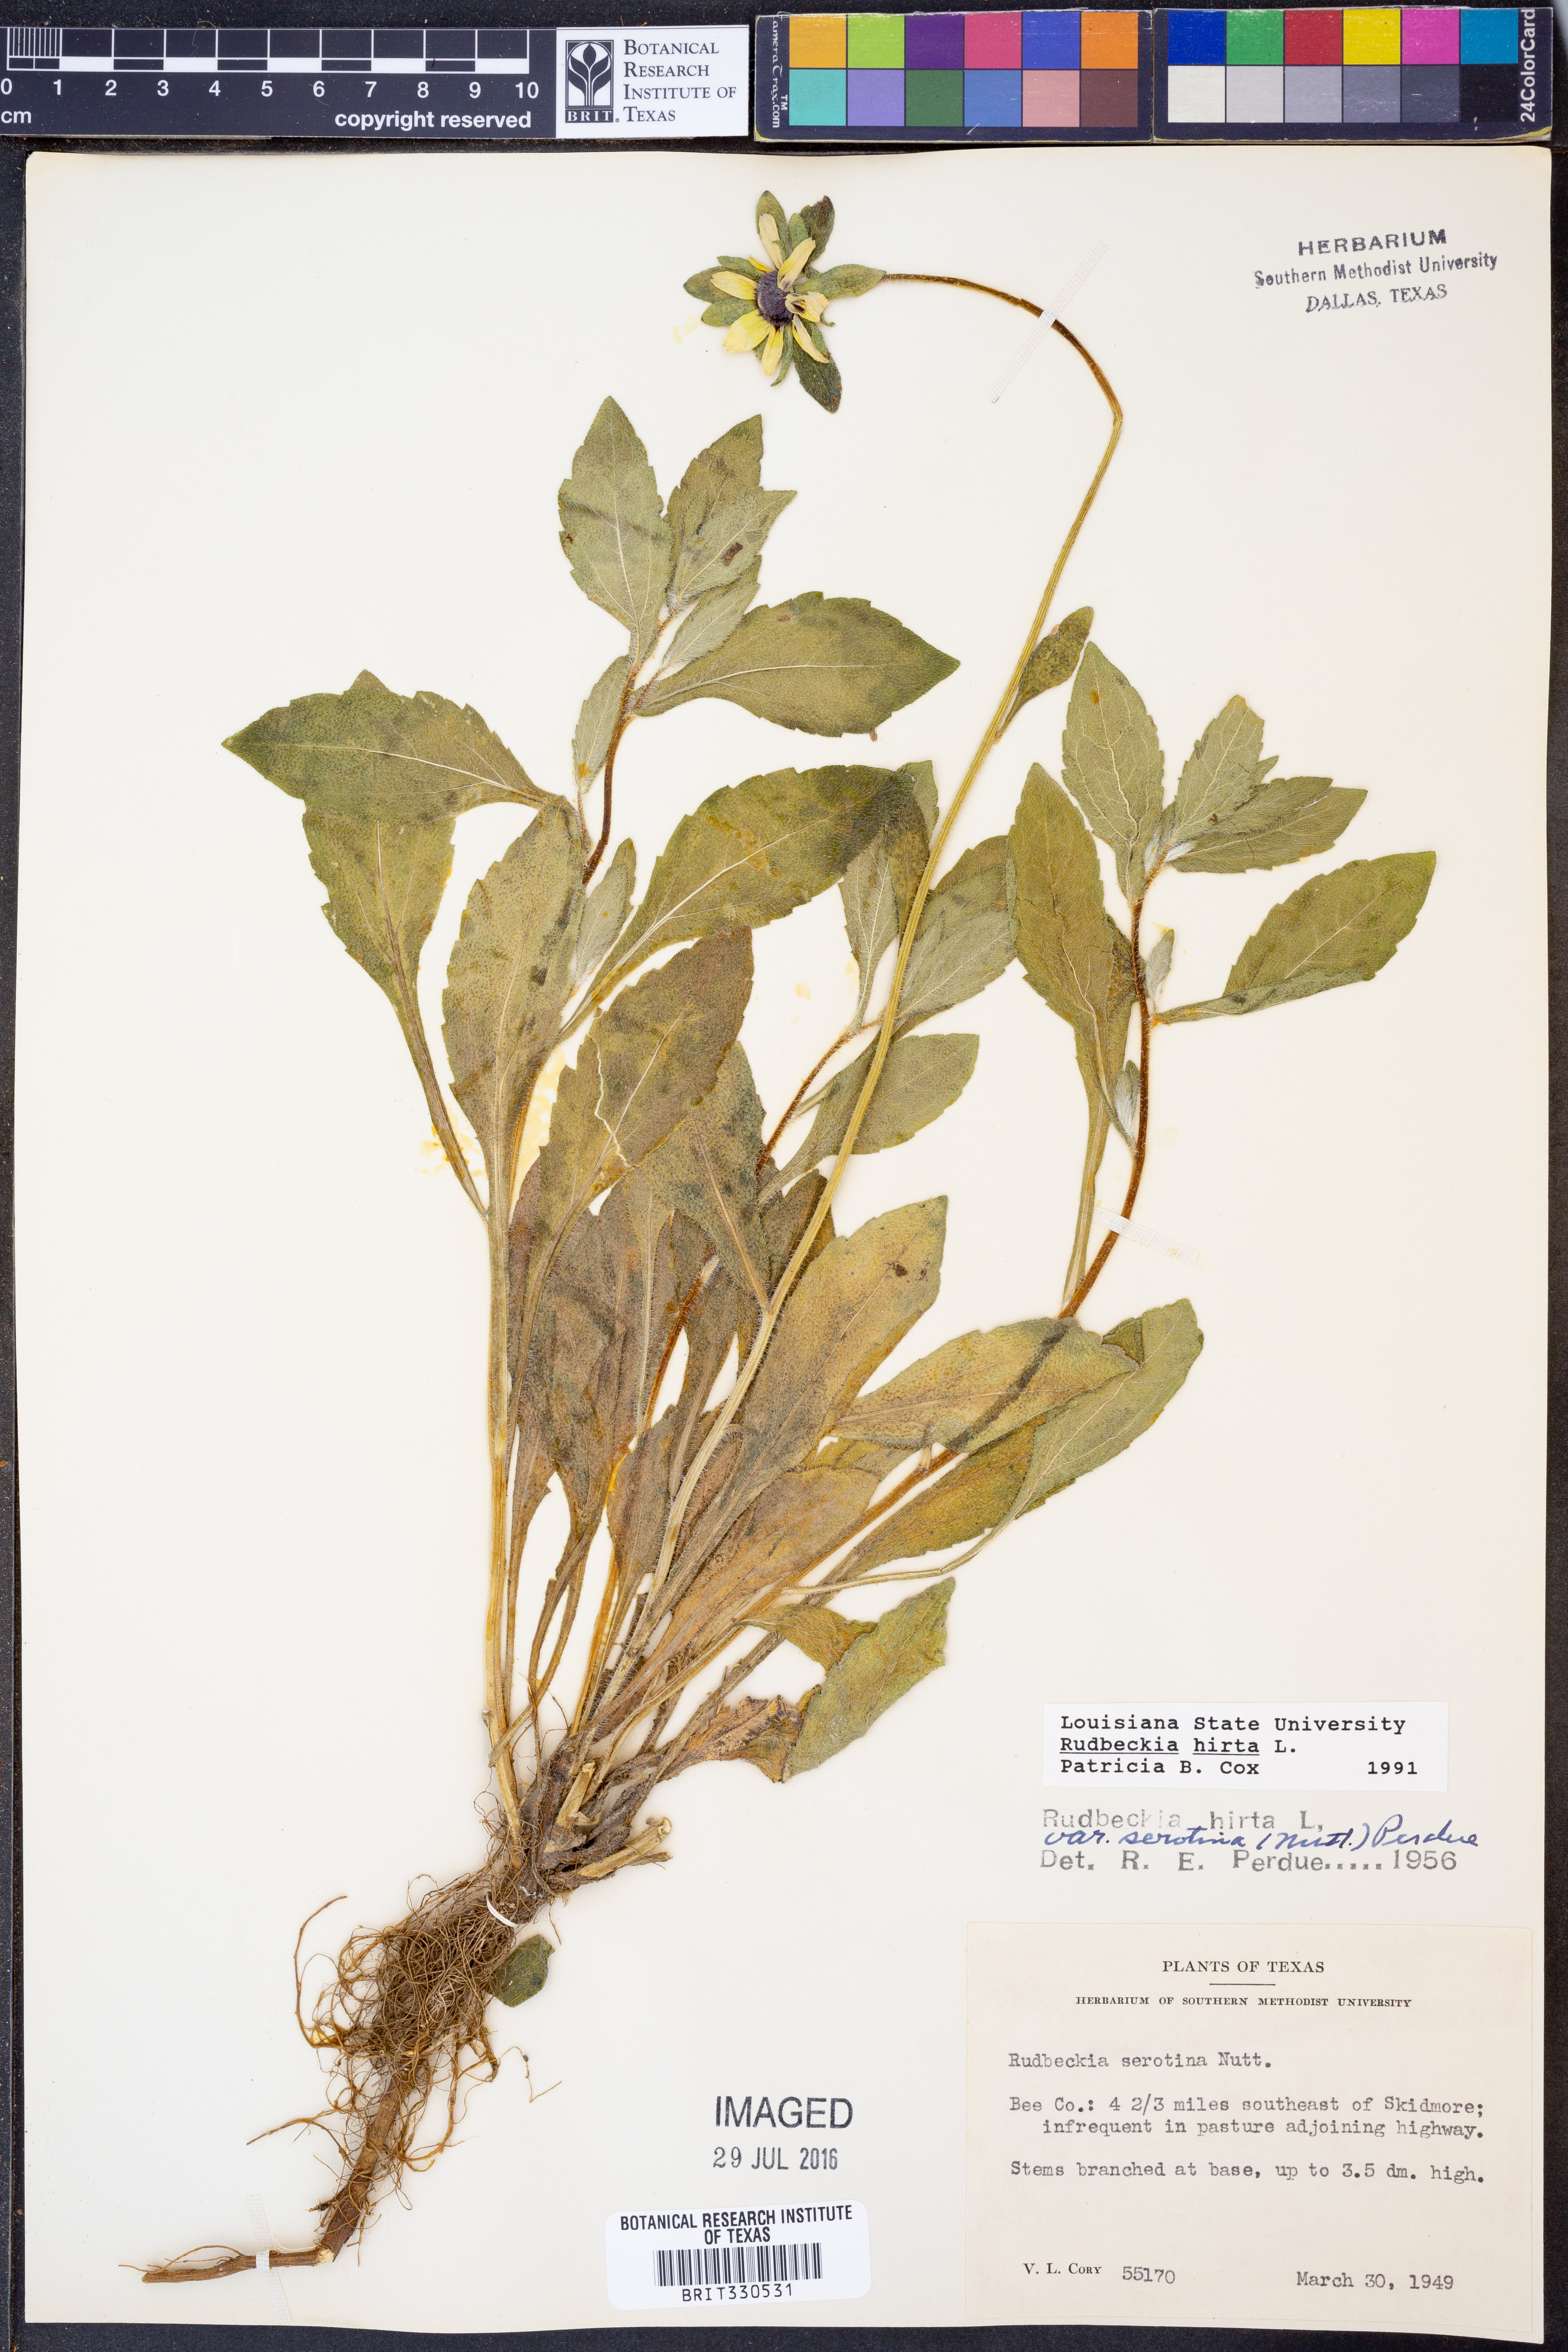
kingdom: Plantae
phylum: Tracheophyta
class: Magnoliopsida
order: Asterales
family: Asteraceae
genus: Rudbeckia
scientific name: Rudbeckia hirta
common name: Black-eyed-susan
